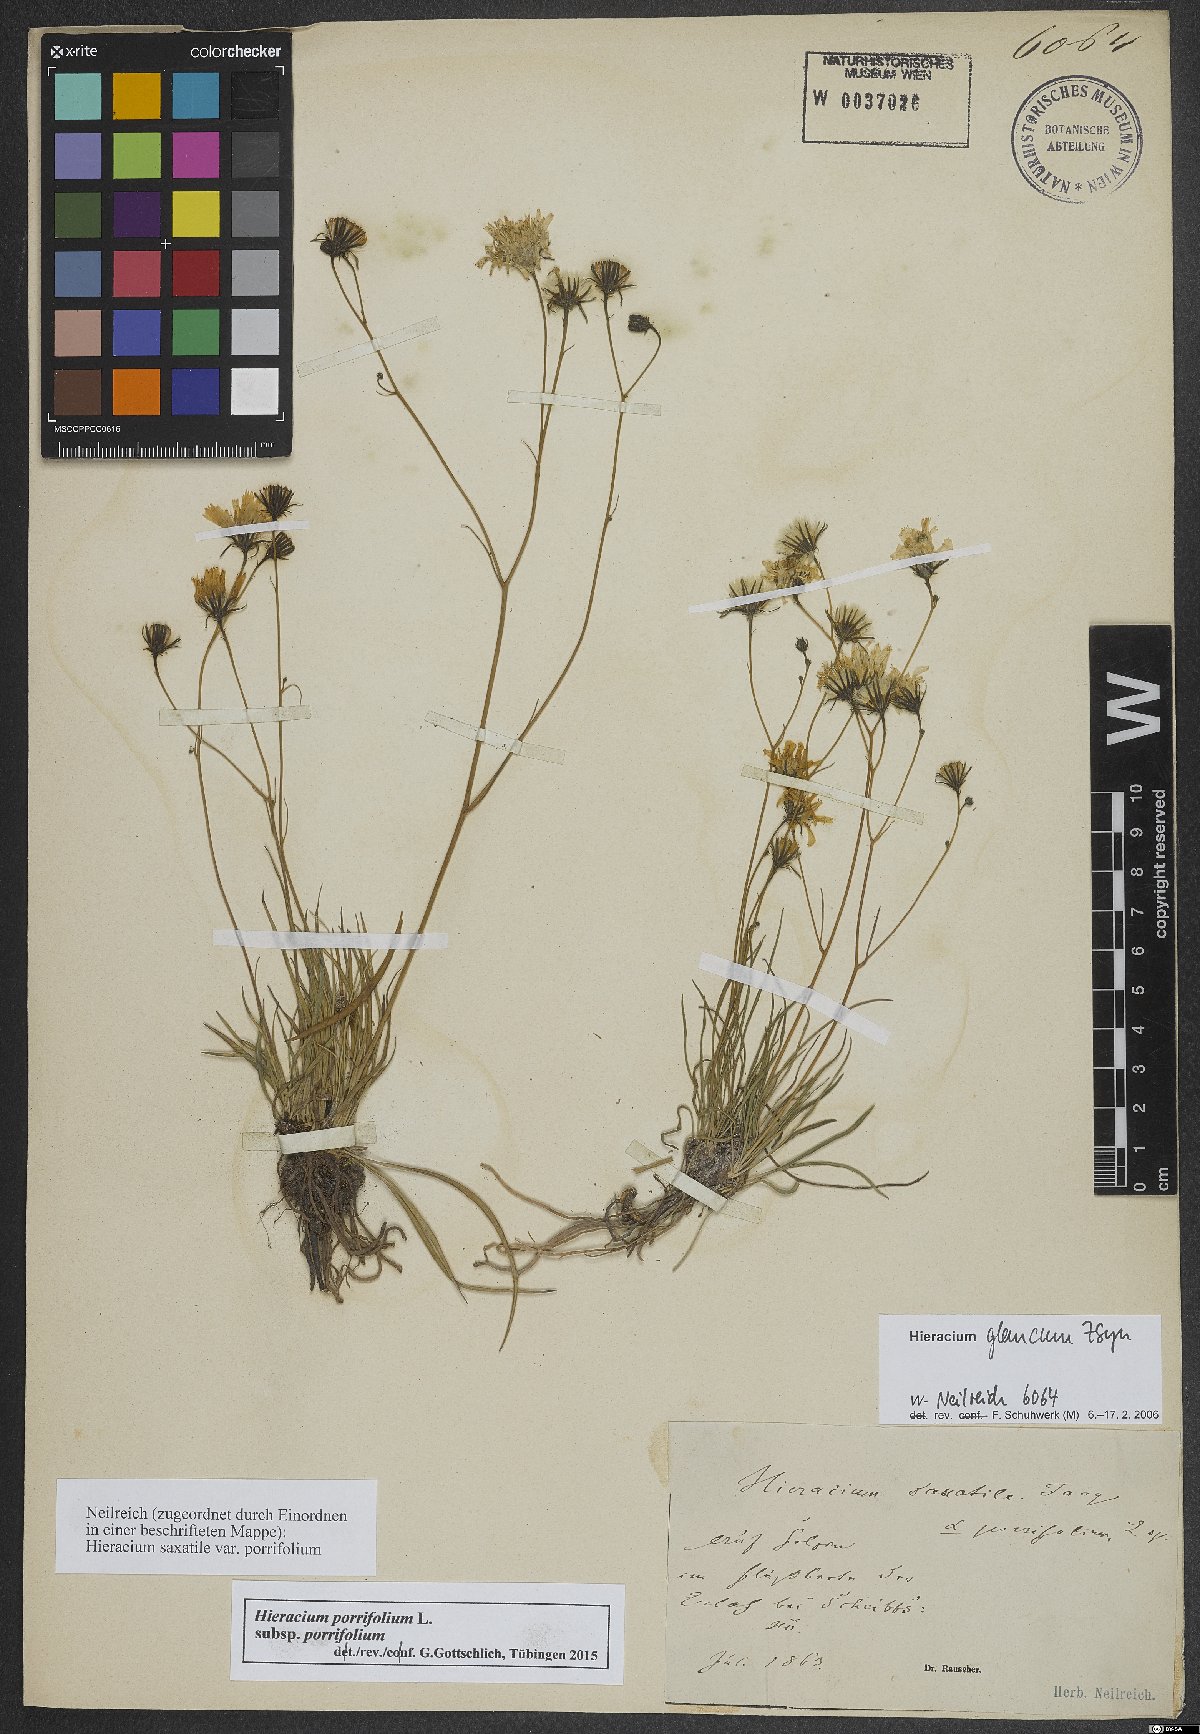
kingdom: Plantae
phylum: Tracheophyta
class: Magnoliopsida
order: Asterales
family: Asteraceae
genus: Hieracium
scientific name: Hieracium porrifolium
